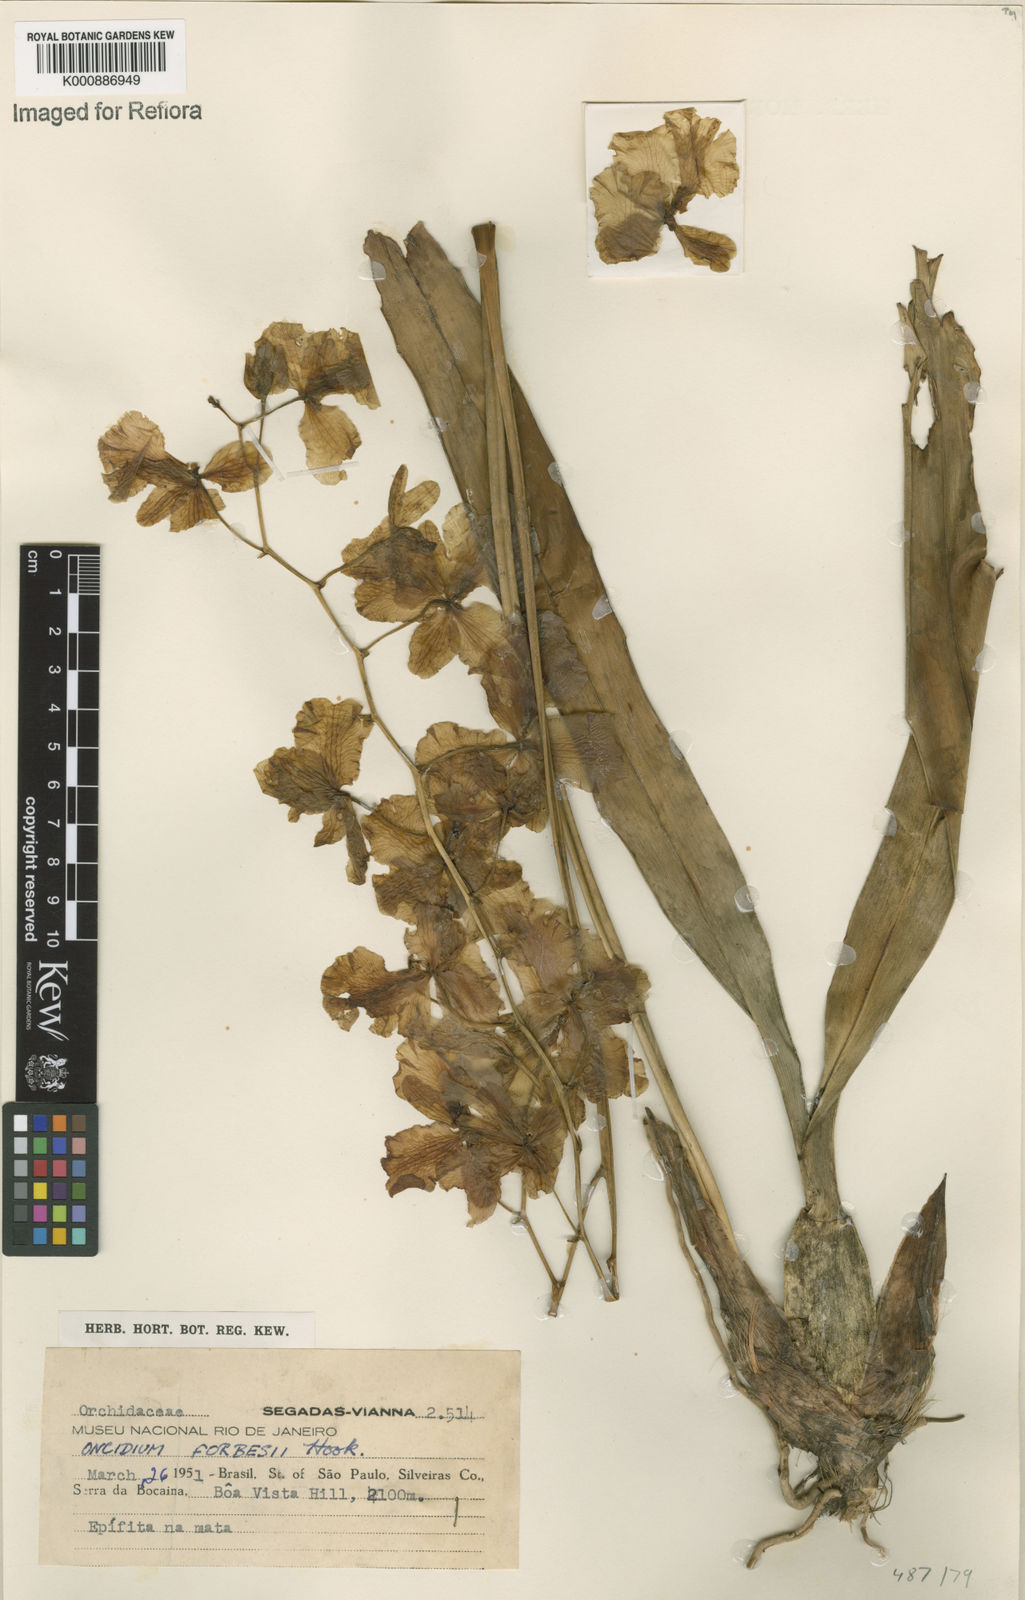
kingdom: Plantae
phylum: Tracheophyta
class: Liliopsida
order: Asparagales
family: Orchidaceae
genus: Gomesa
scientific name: Gomesa forbesii
